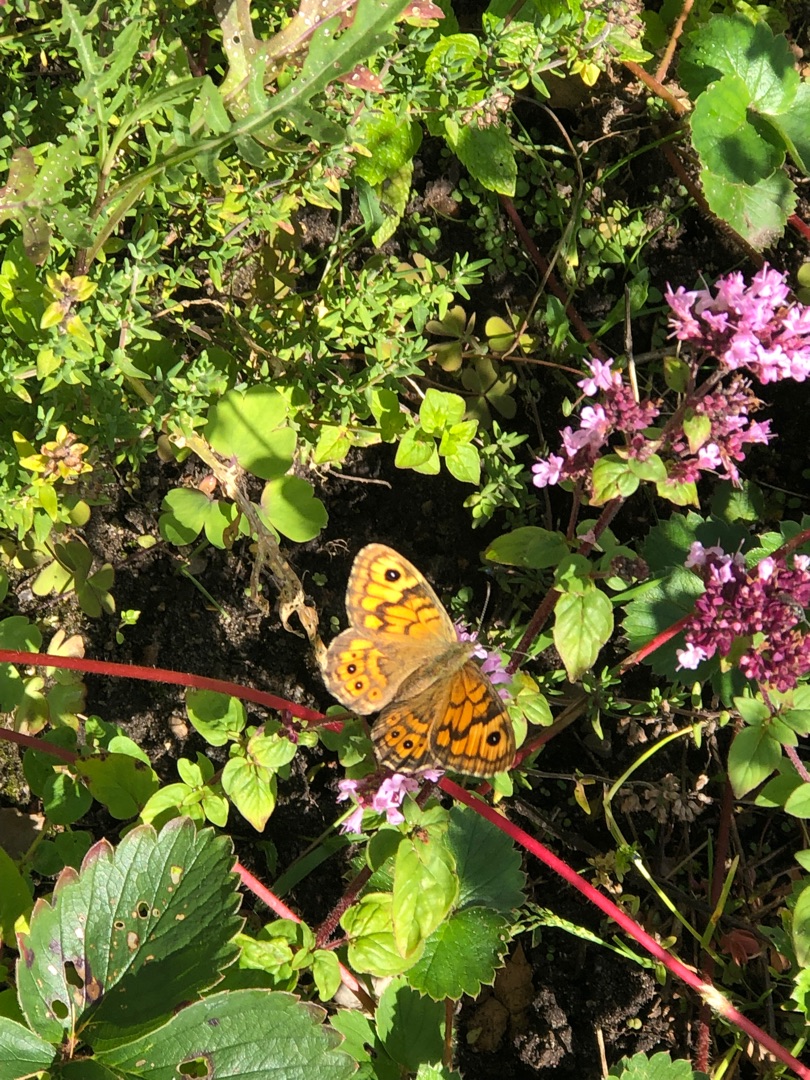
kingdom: Animalia
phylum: Arthropoda
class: Insecta
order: Lepidoptera
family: Nymphalidae
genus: Pararge
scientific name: Pararge Lasiommata megera
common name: Vejrandøje
